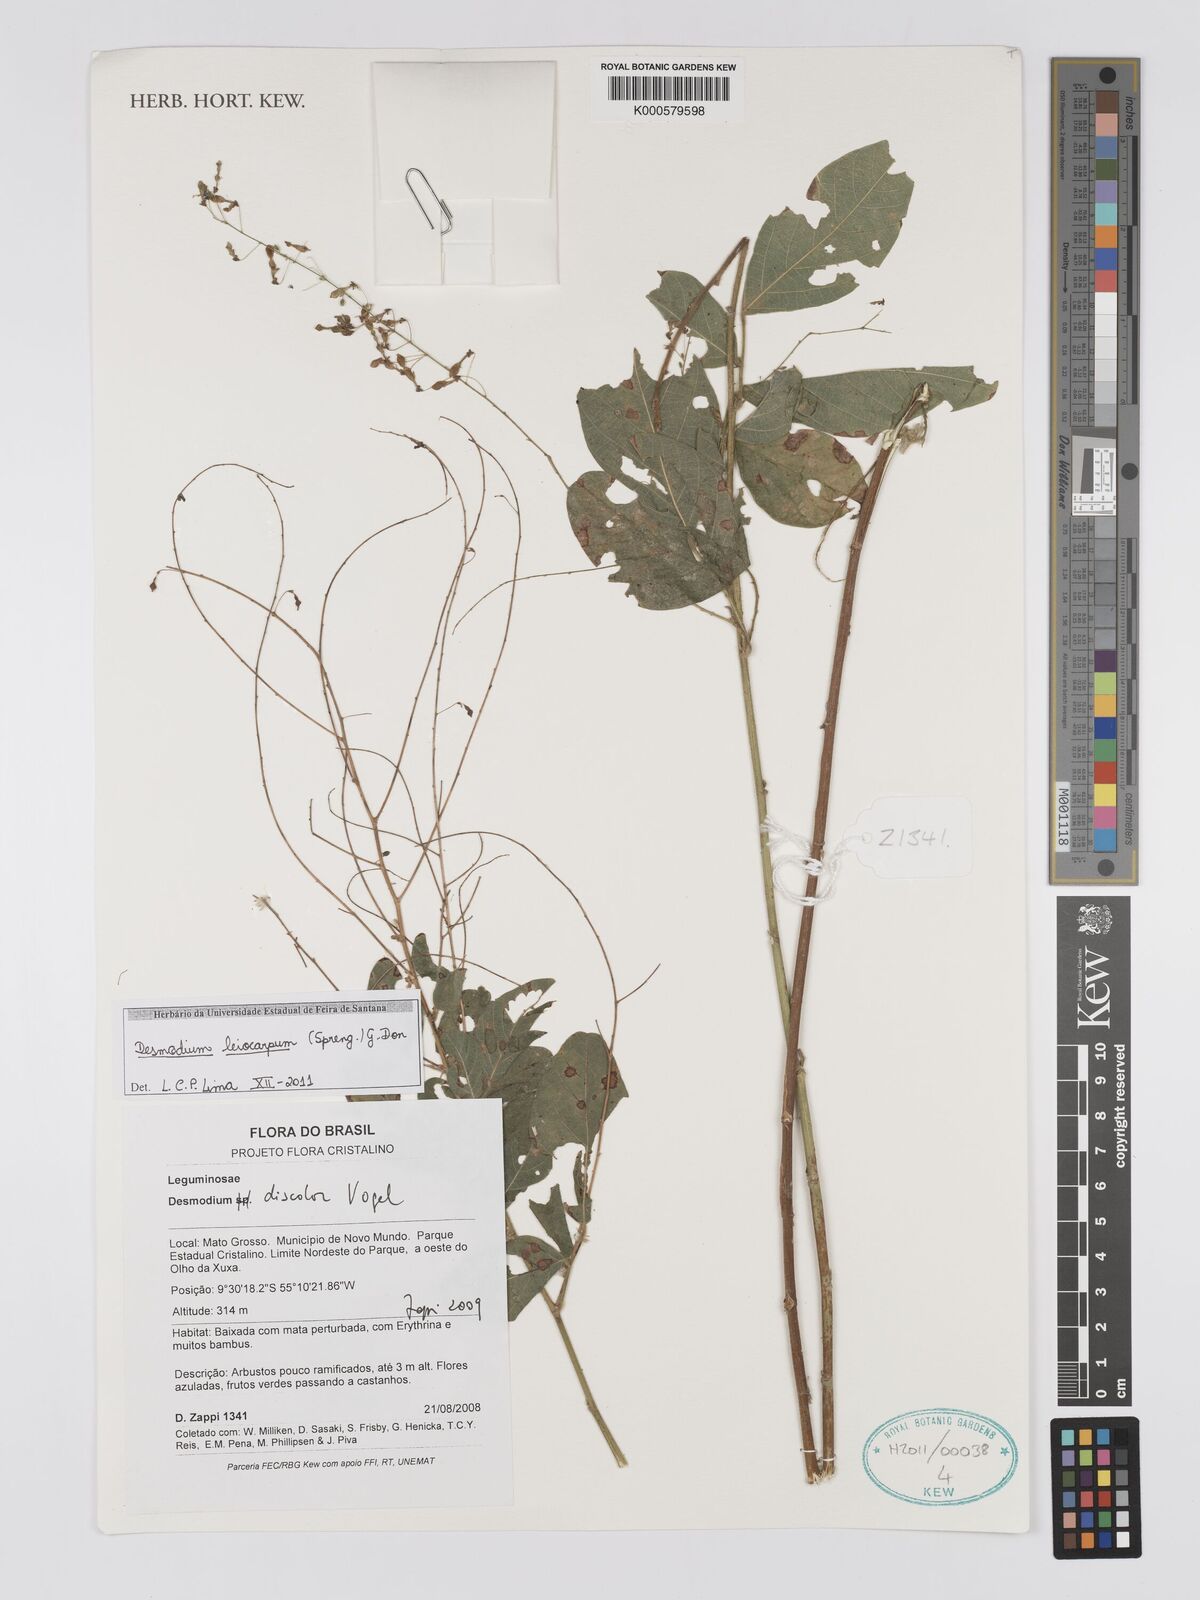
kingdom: Plantae
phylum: Tracheophyta
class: Magnoliopsida
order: Fabales
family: Fabaceae
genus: Desmodium
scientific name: Desmodium subsecundum
